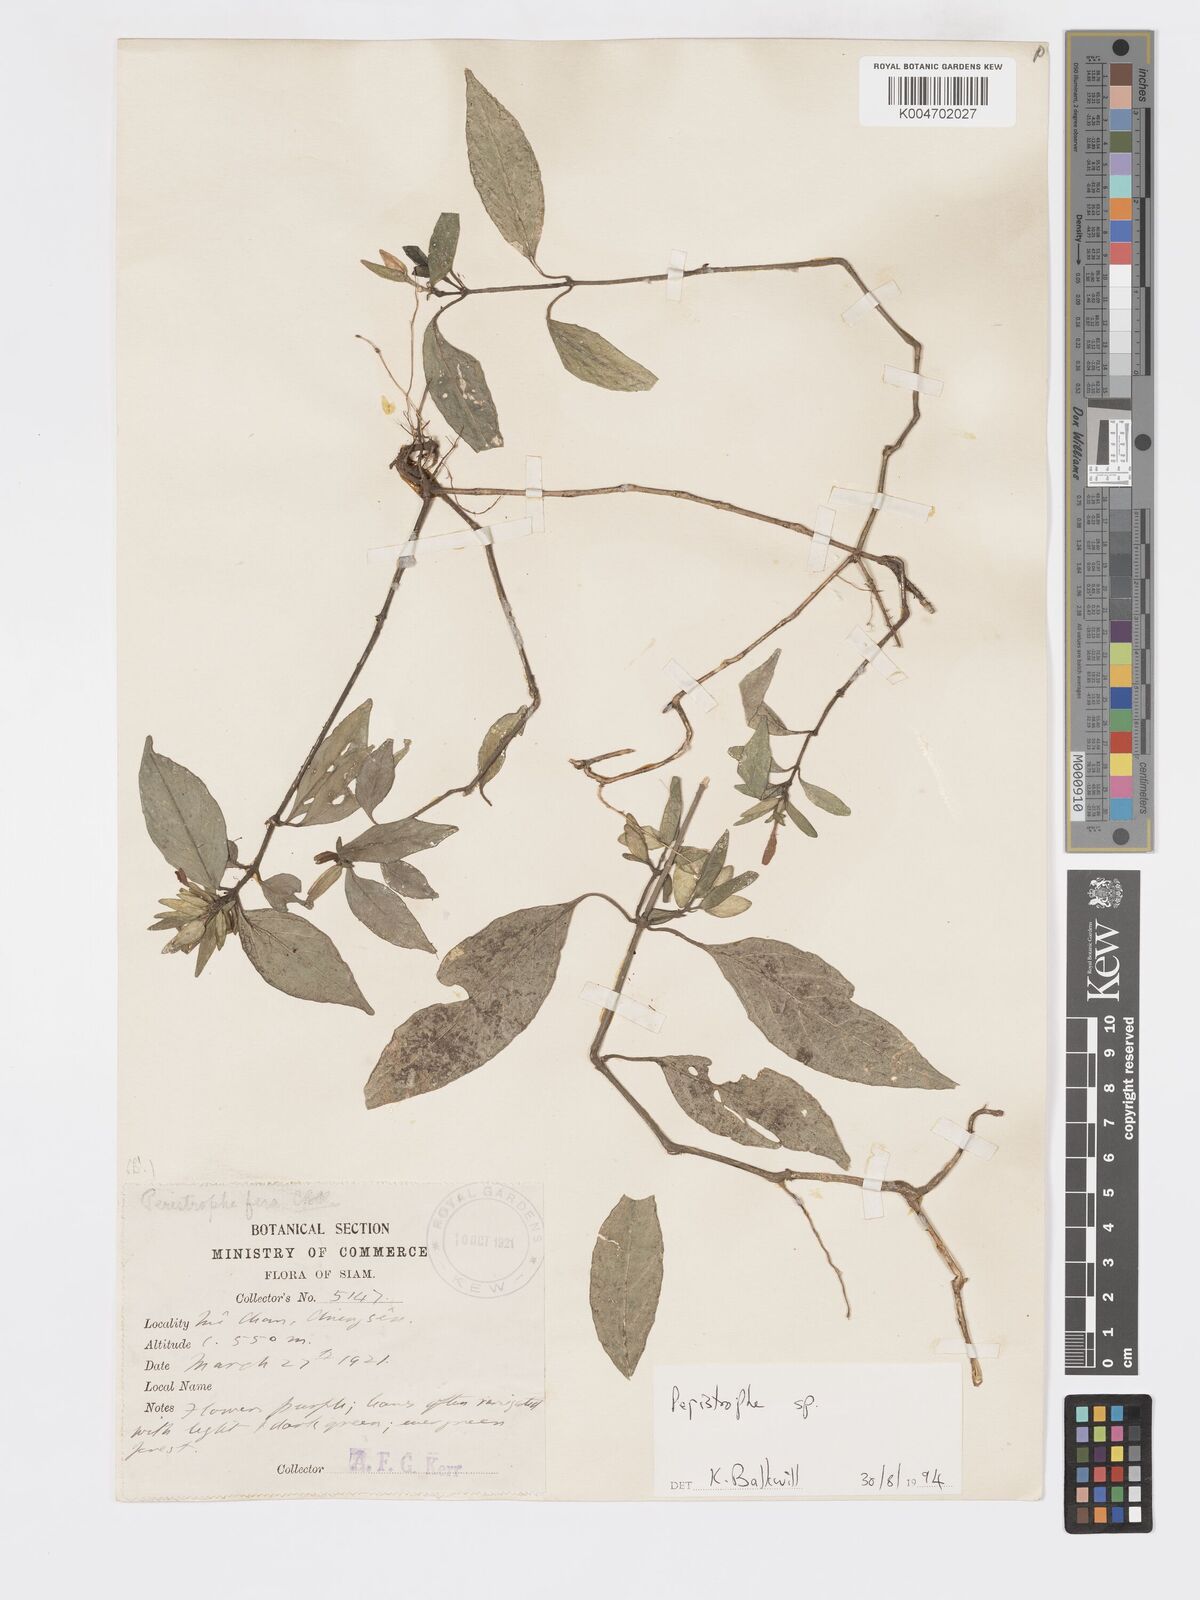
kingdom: Plantae
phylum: Tracheophyta
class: Magnoliopsida
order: Lamiales
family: Acanthaceae
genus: Dicliptera
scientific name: Dicliptera
